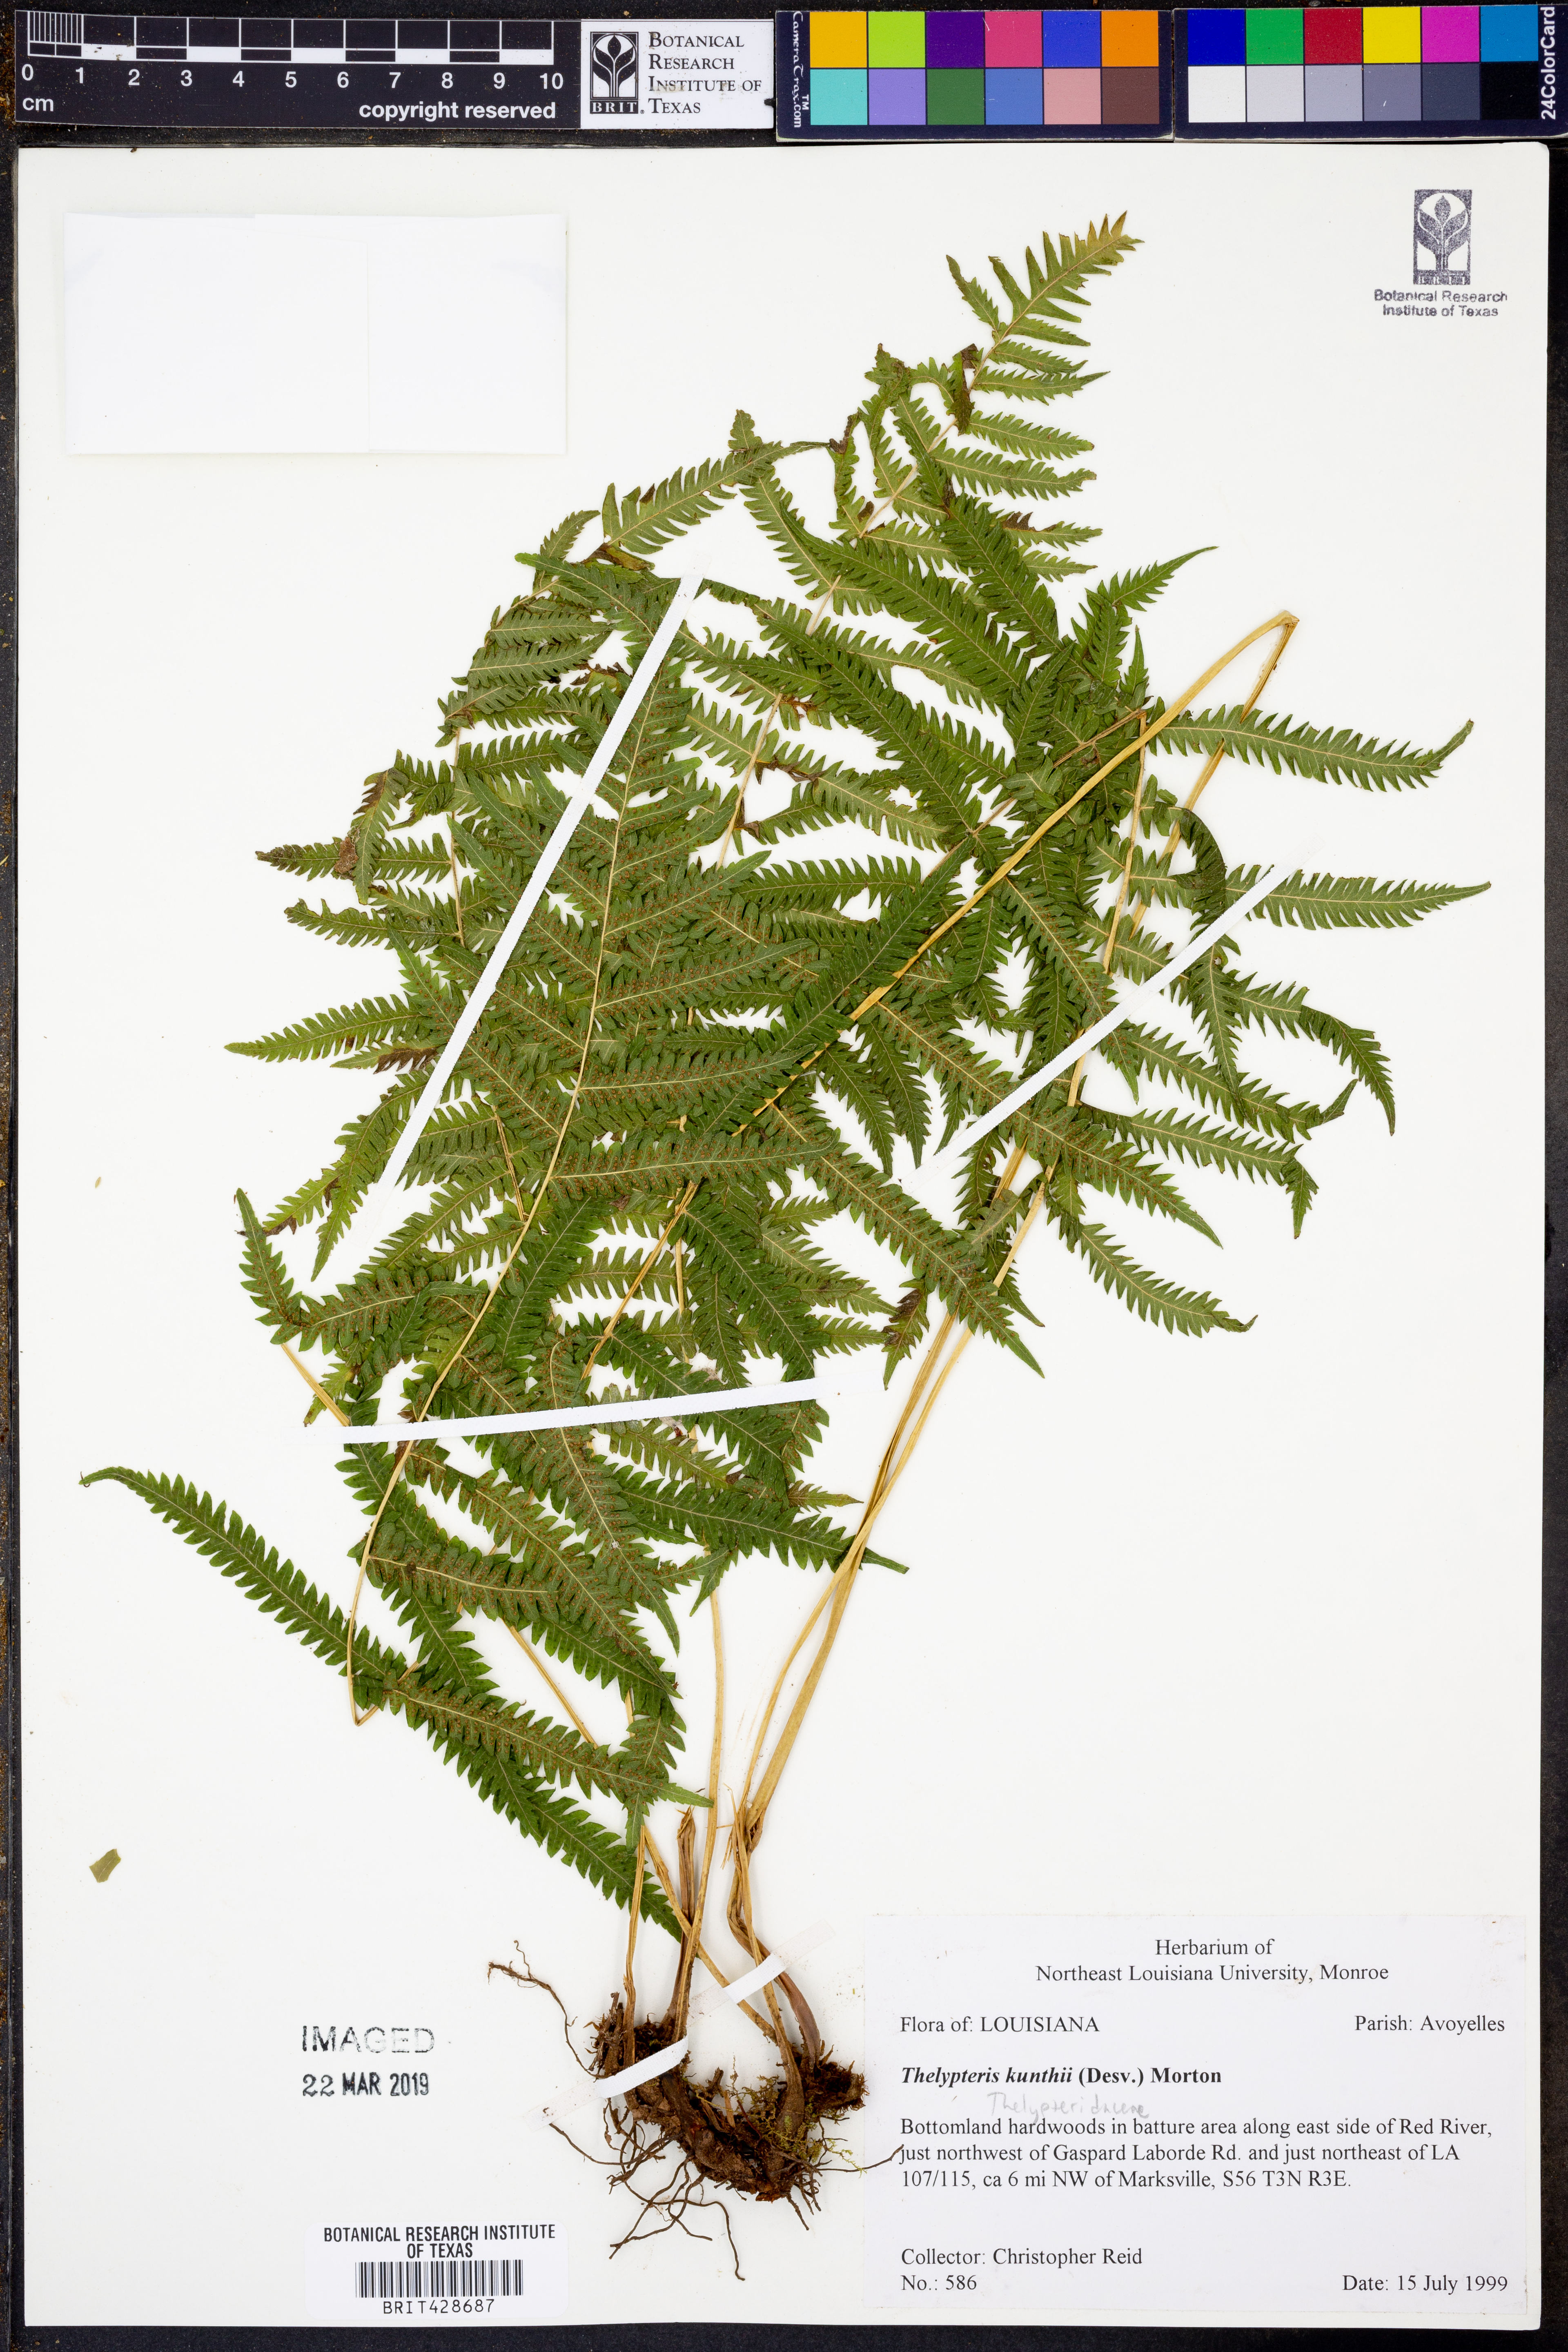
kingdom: Plantae
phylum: Tracheophyta
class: Polypodiopsida
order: Polypodiales
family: Thelypteridaceae
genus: Pelazoneuron
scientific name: Pelazoneuron kunthii
